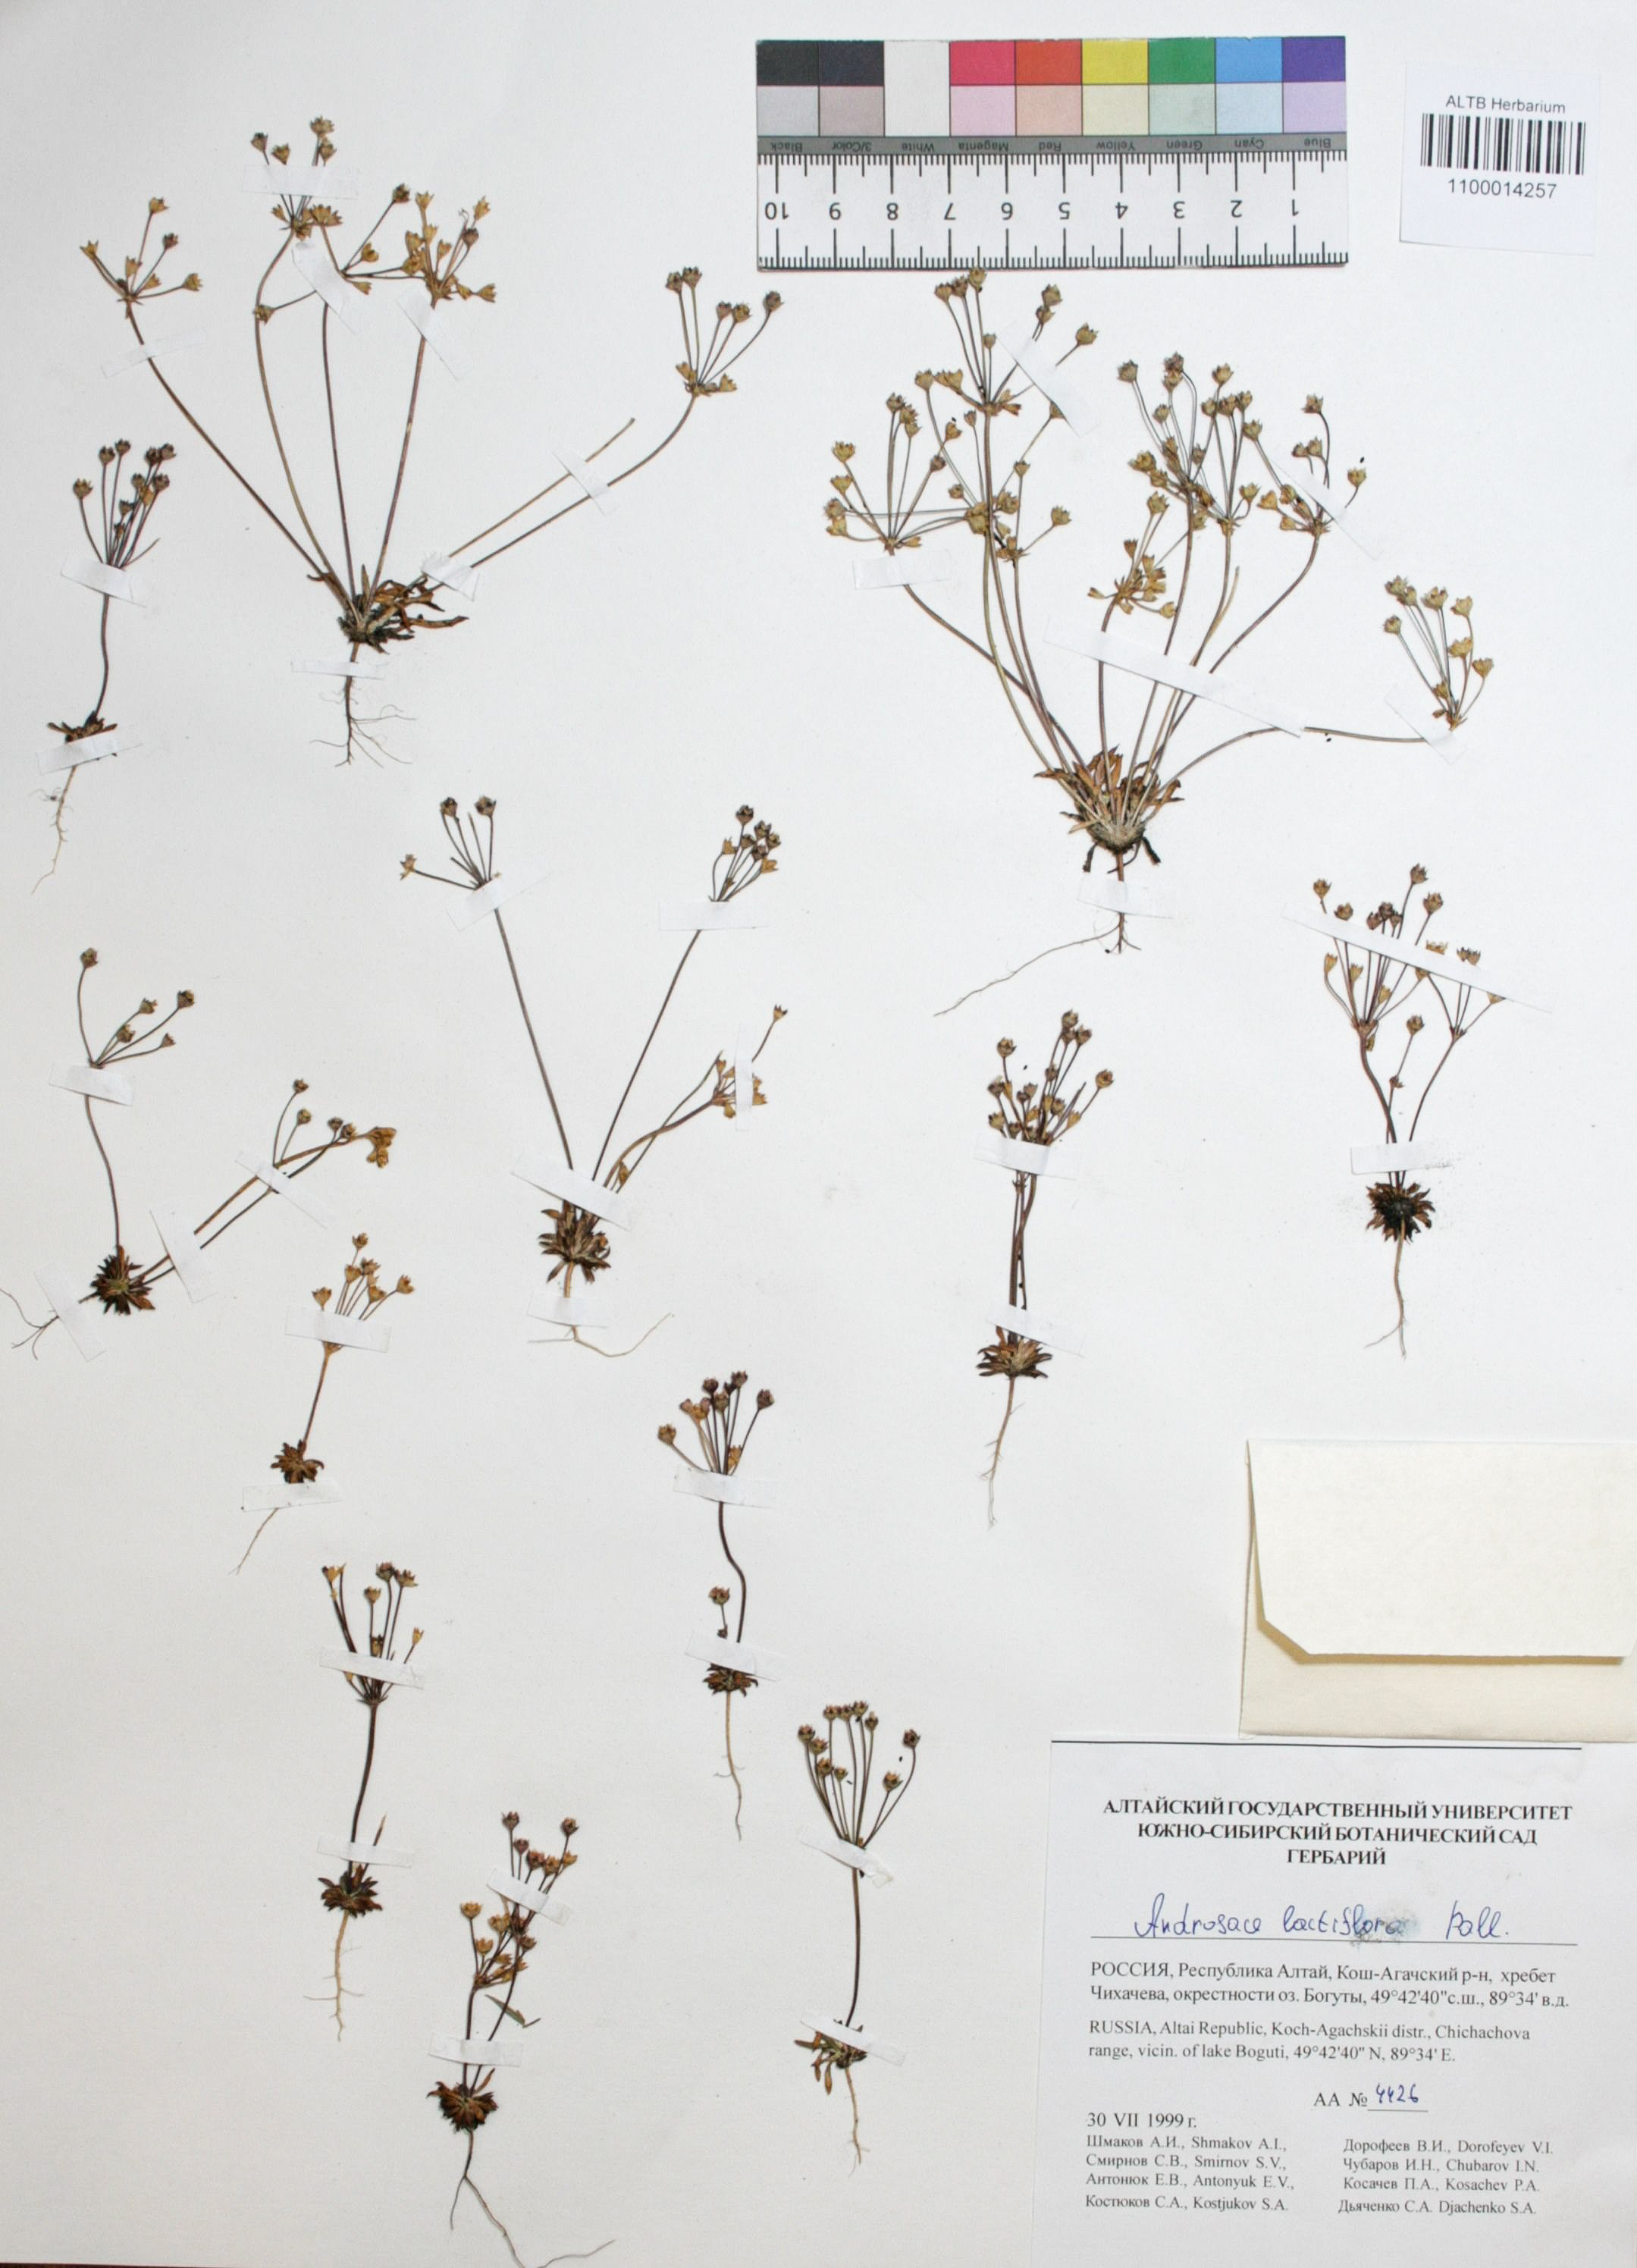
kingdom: Plantae
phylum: Tracheophyta
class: Magnoliopsida
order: Ericales
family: Primulaceae
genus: Androsace
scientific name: Androsace lactiflora
